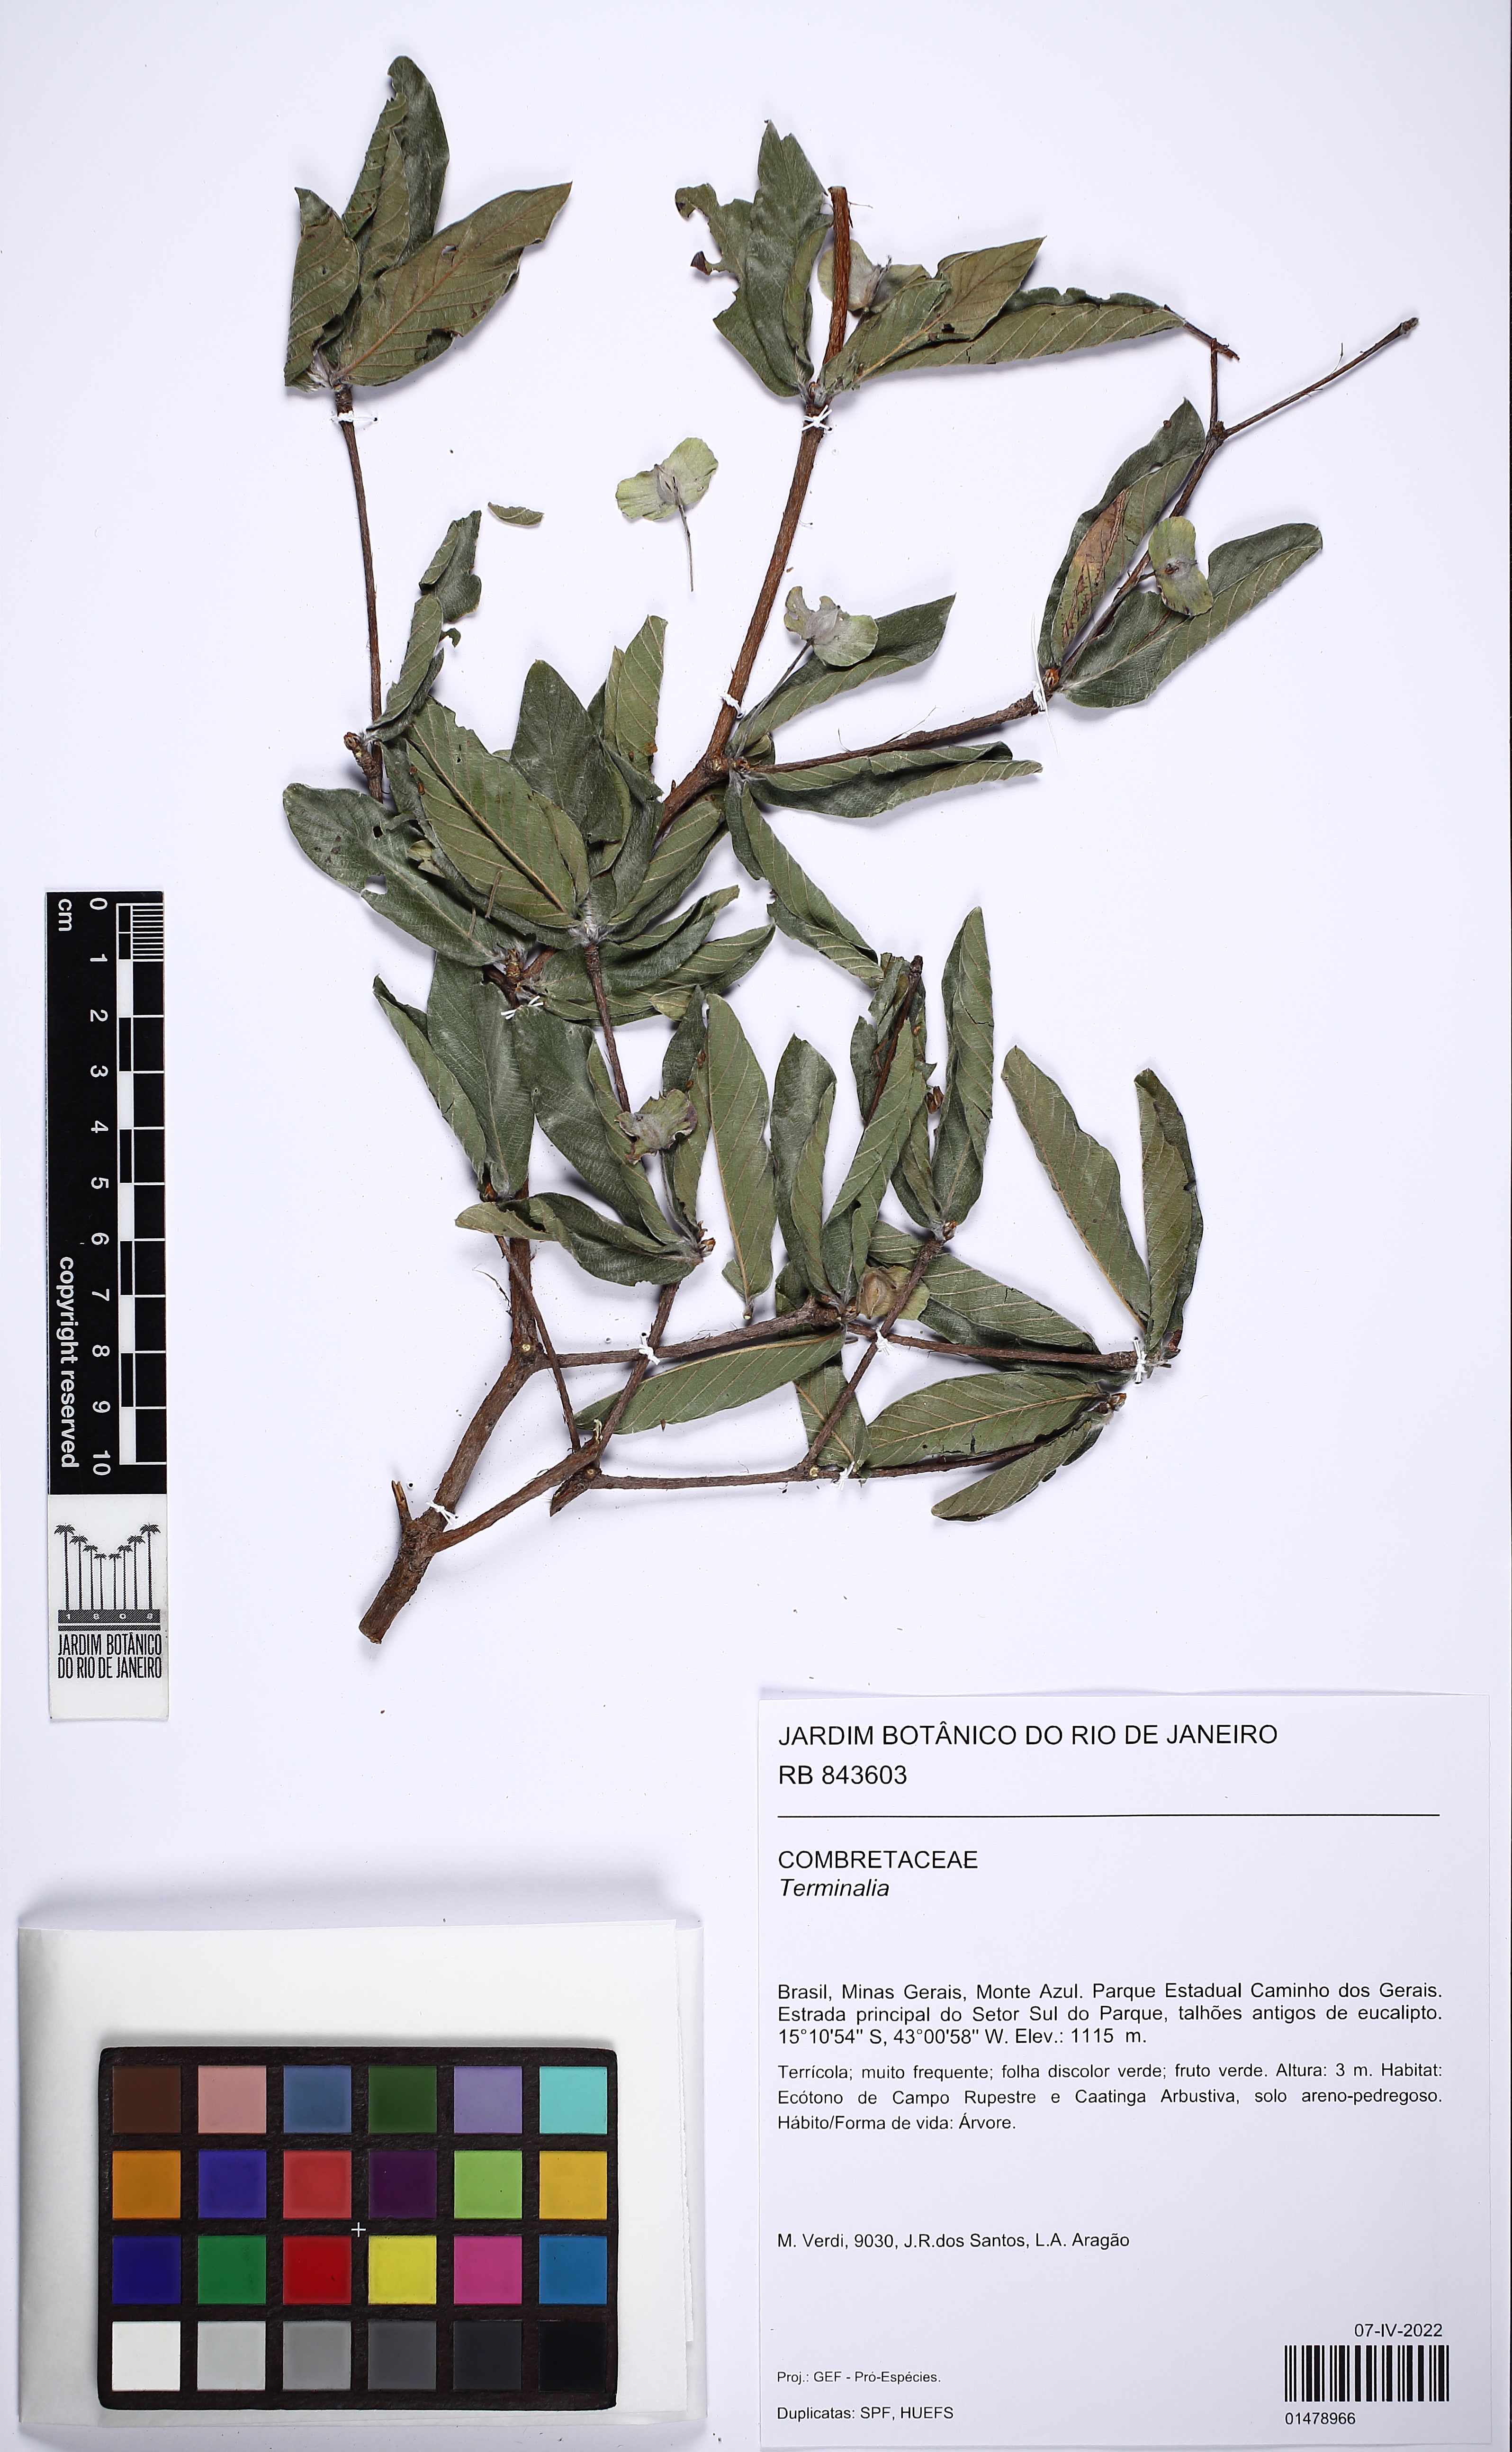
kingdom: Plantae
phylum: Tracheophyta
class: Magnoliopsida
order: Myrtales
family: Combretaceae
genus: Terminalia
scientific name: Terminalia
